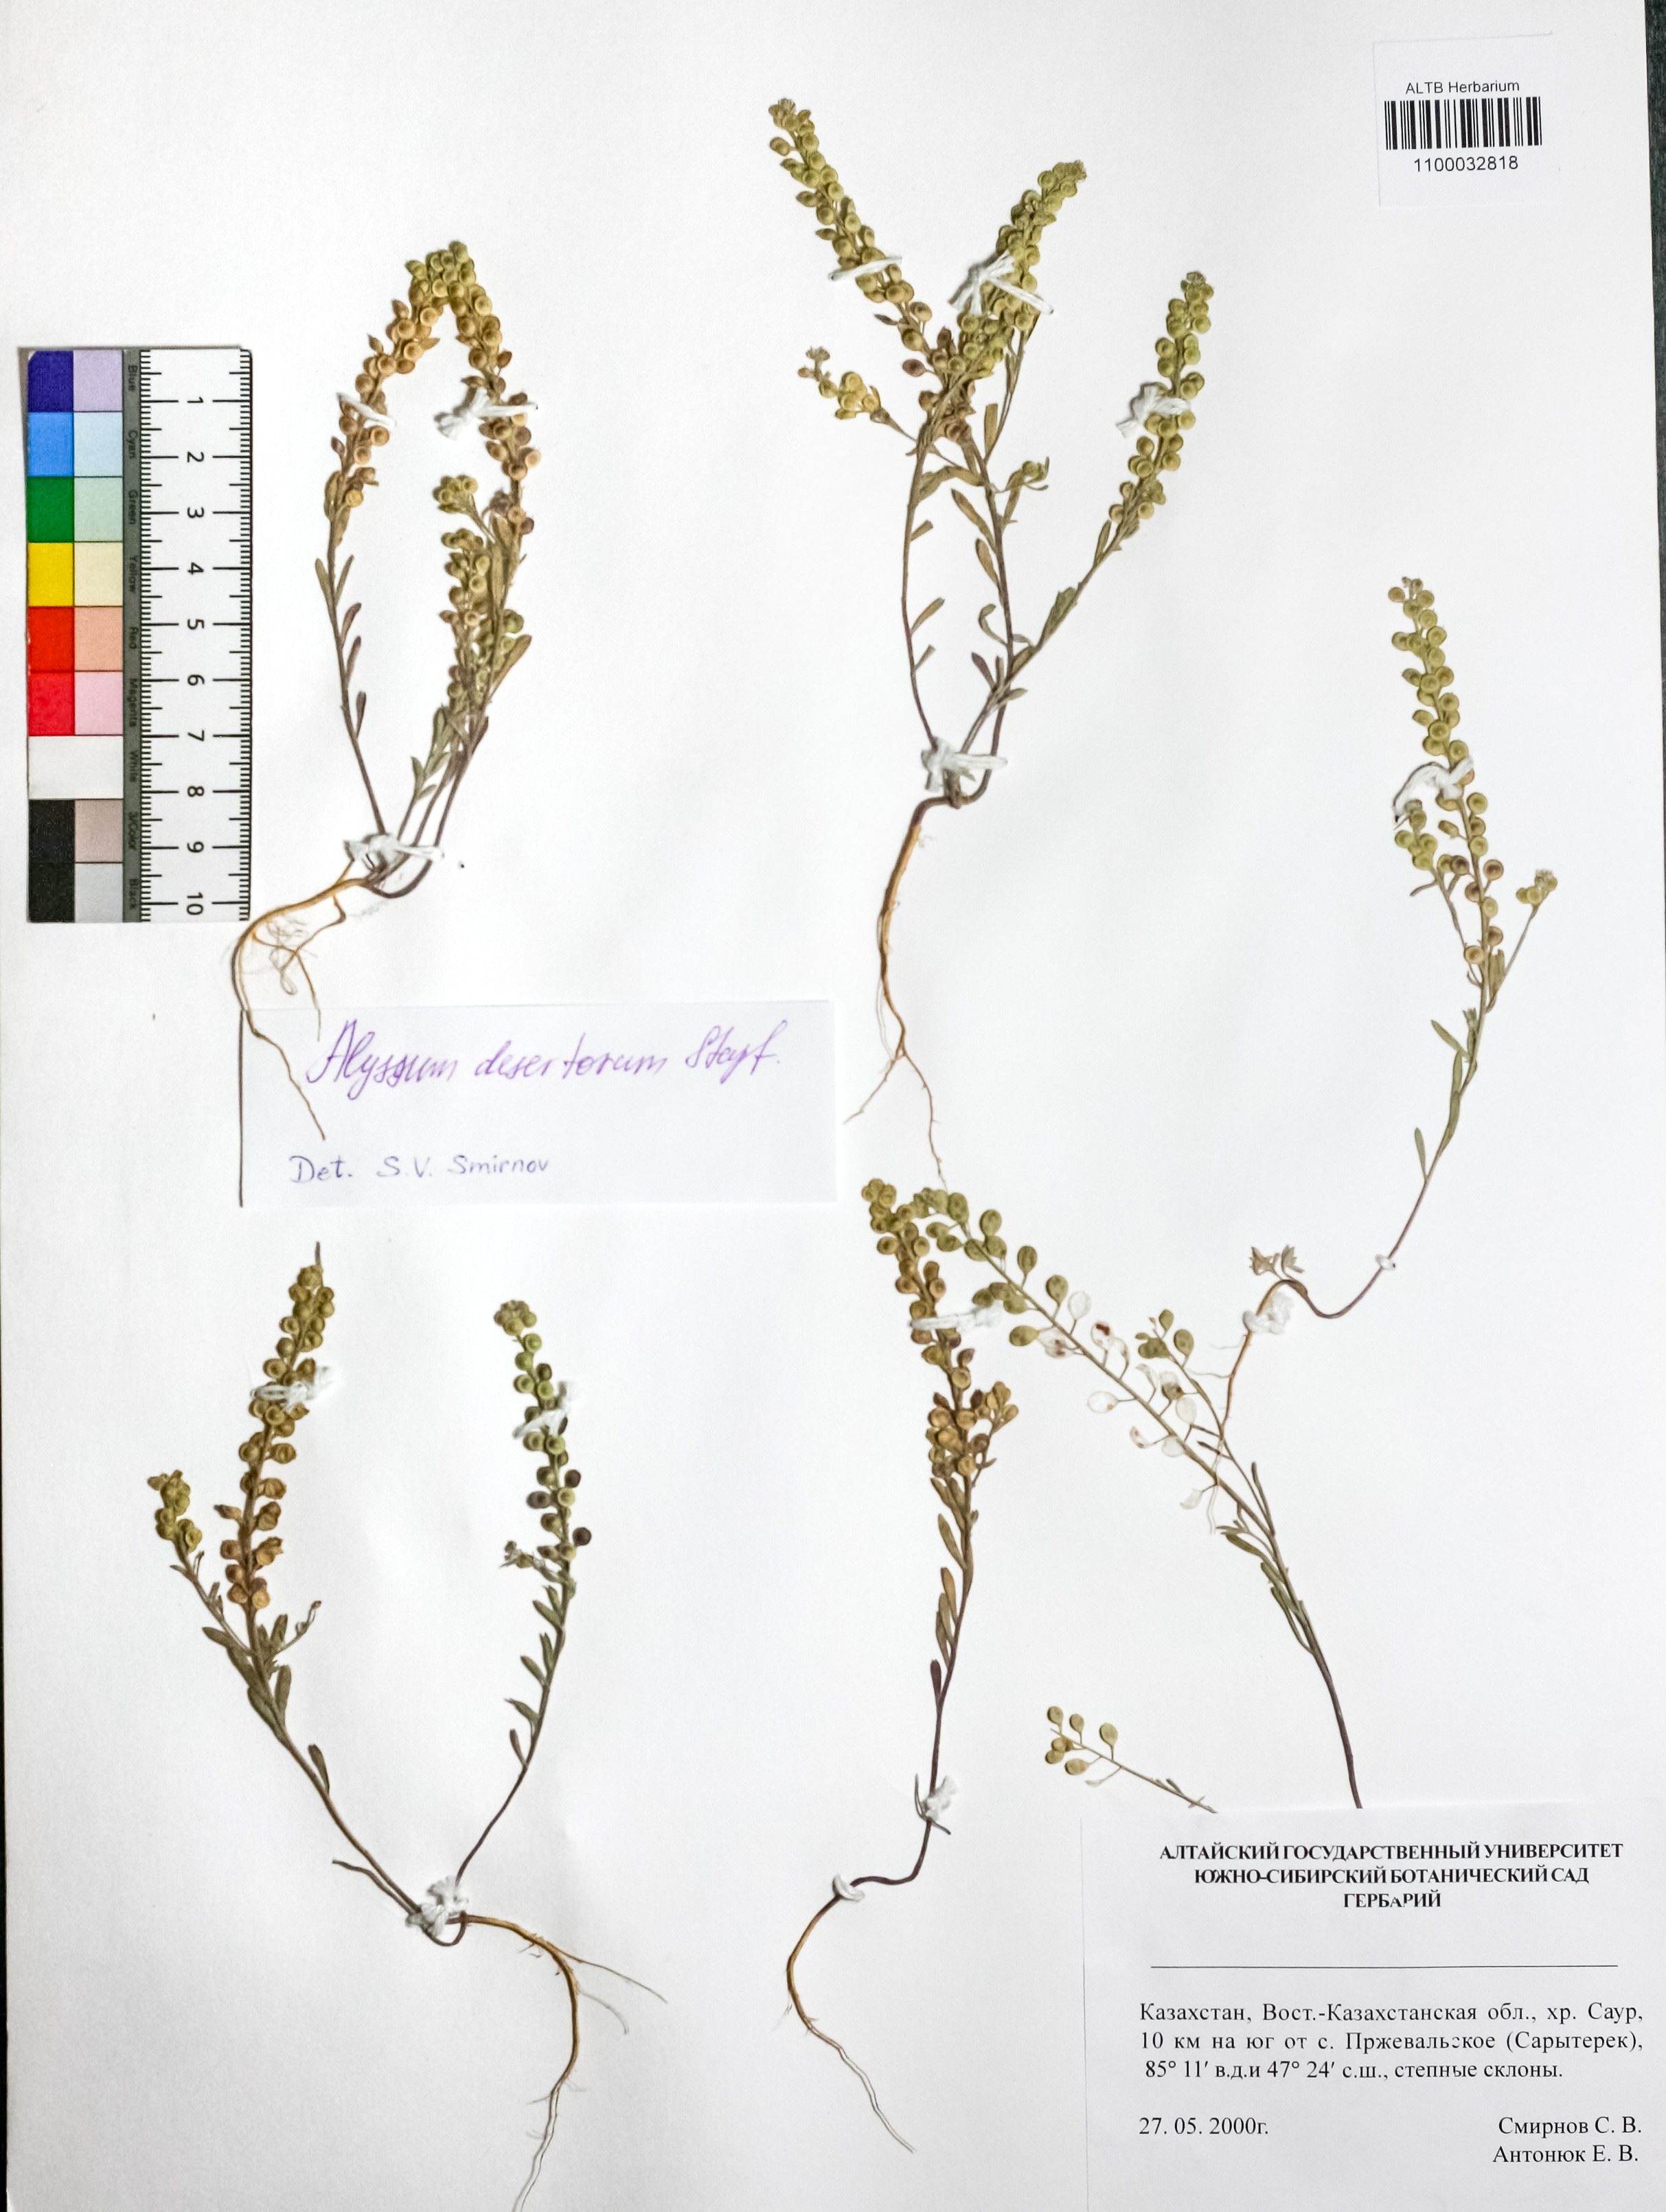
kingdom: Plantae
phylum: Tracheophyta
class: Magnoliopsida
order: Brassicales
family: Brassicaceae
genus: Alyssum
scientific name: Alyssum turkestanicum
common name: Desert alyssum
